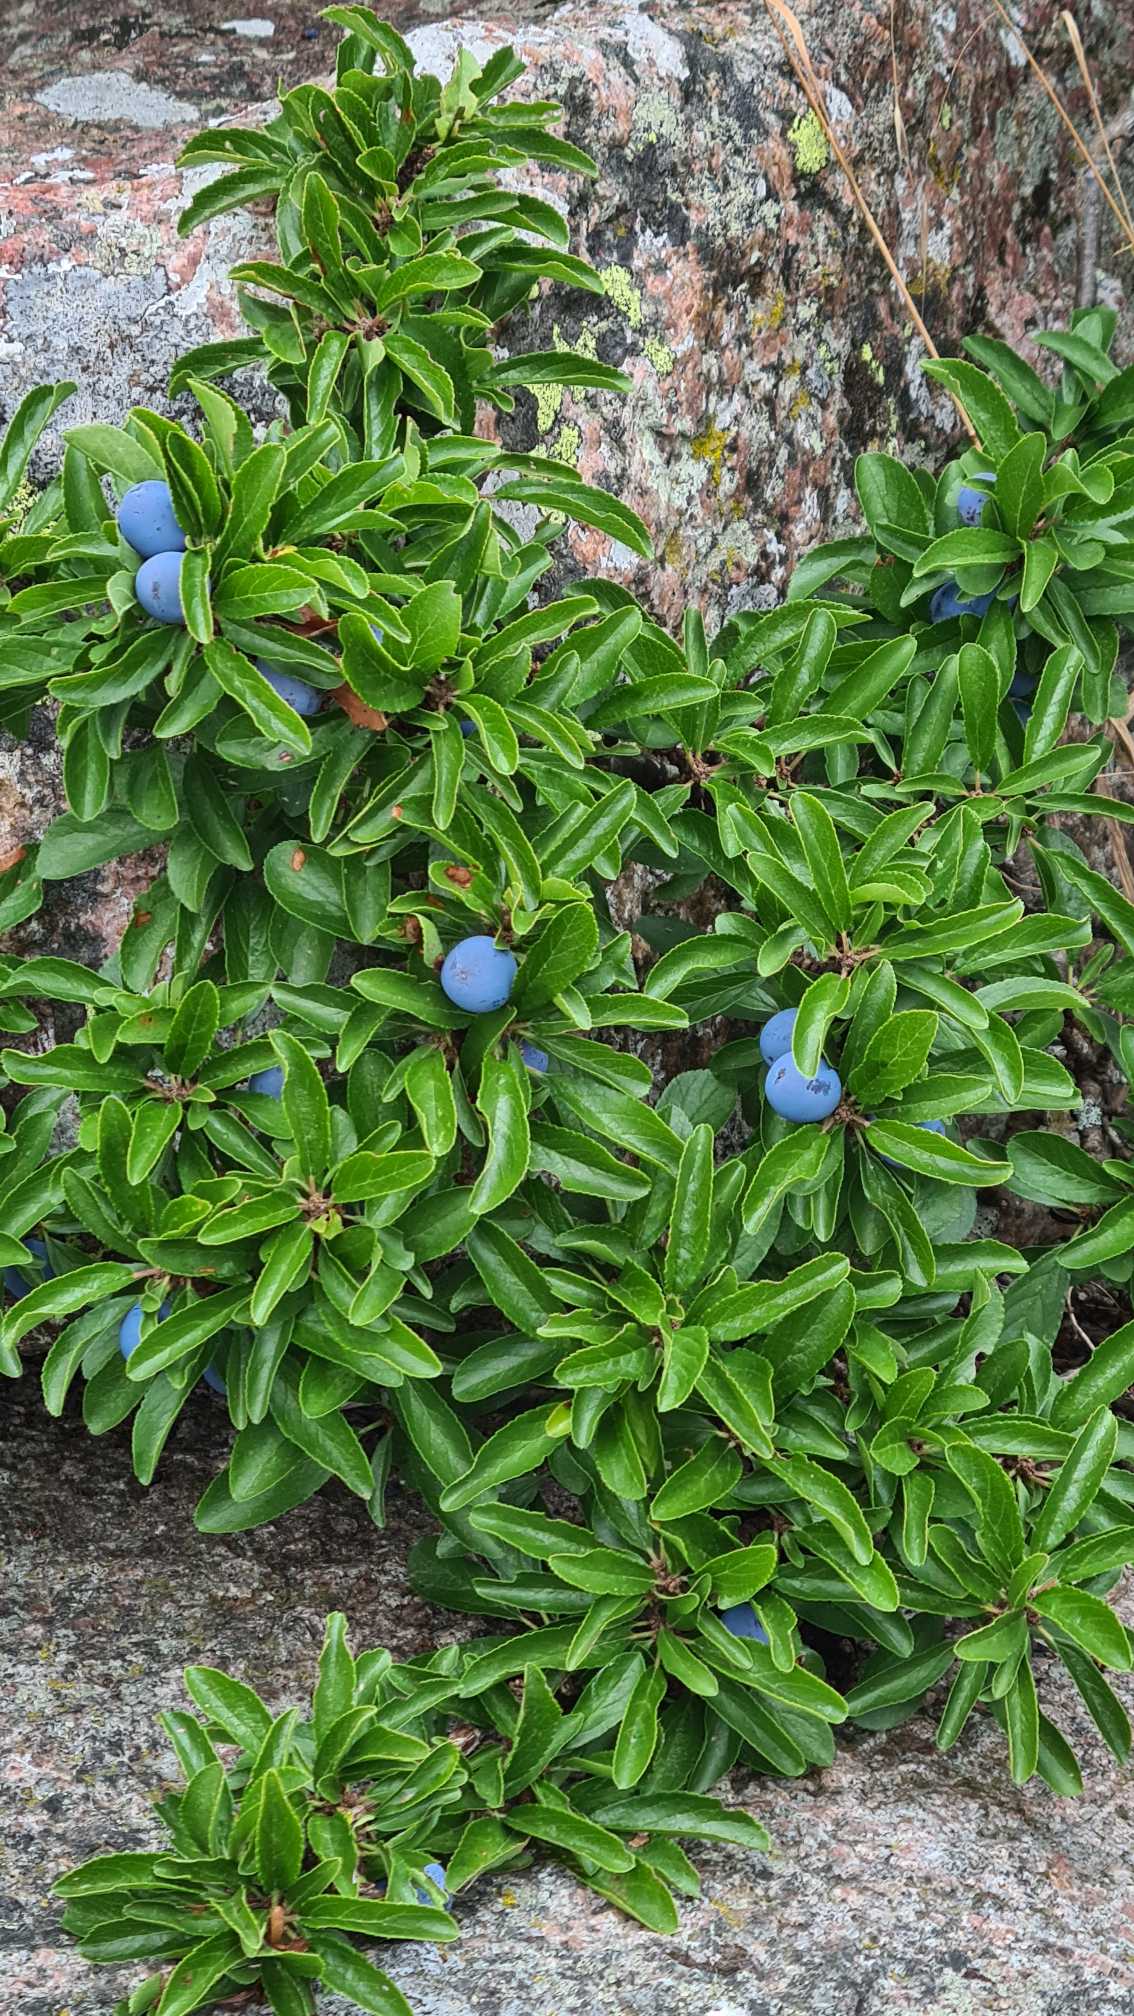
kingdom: Plantae
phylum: Tracheophyta
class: Magnoliopsida
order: Rosales
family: Rosaceae
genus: Prunus
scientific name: Prunus spinosa
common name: Slåen
